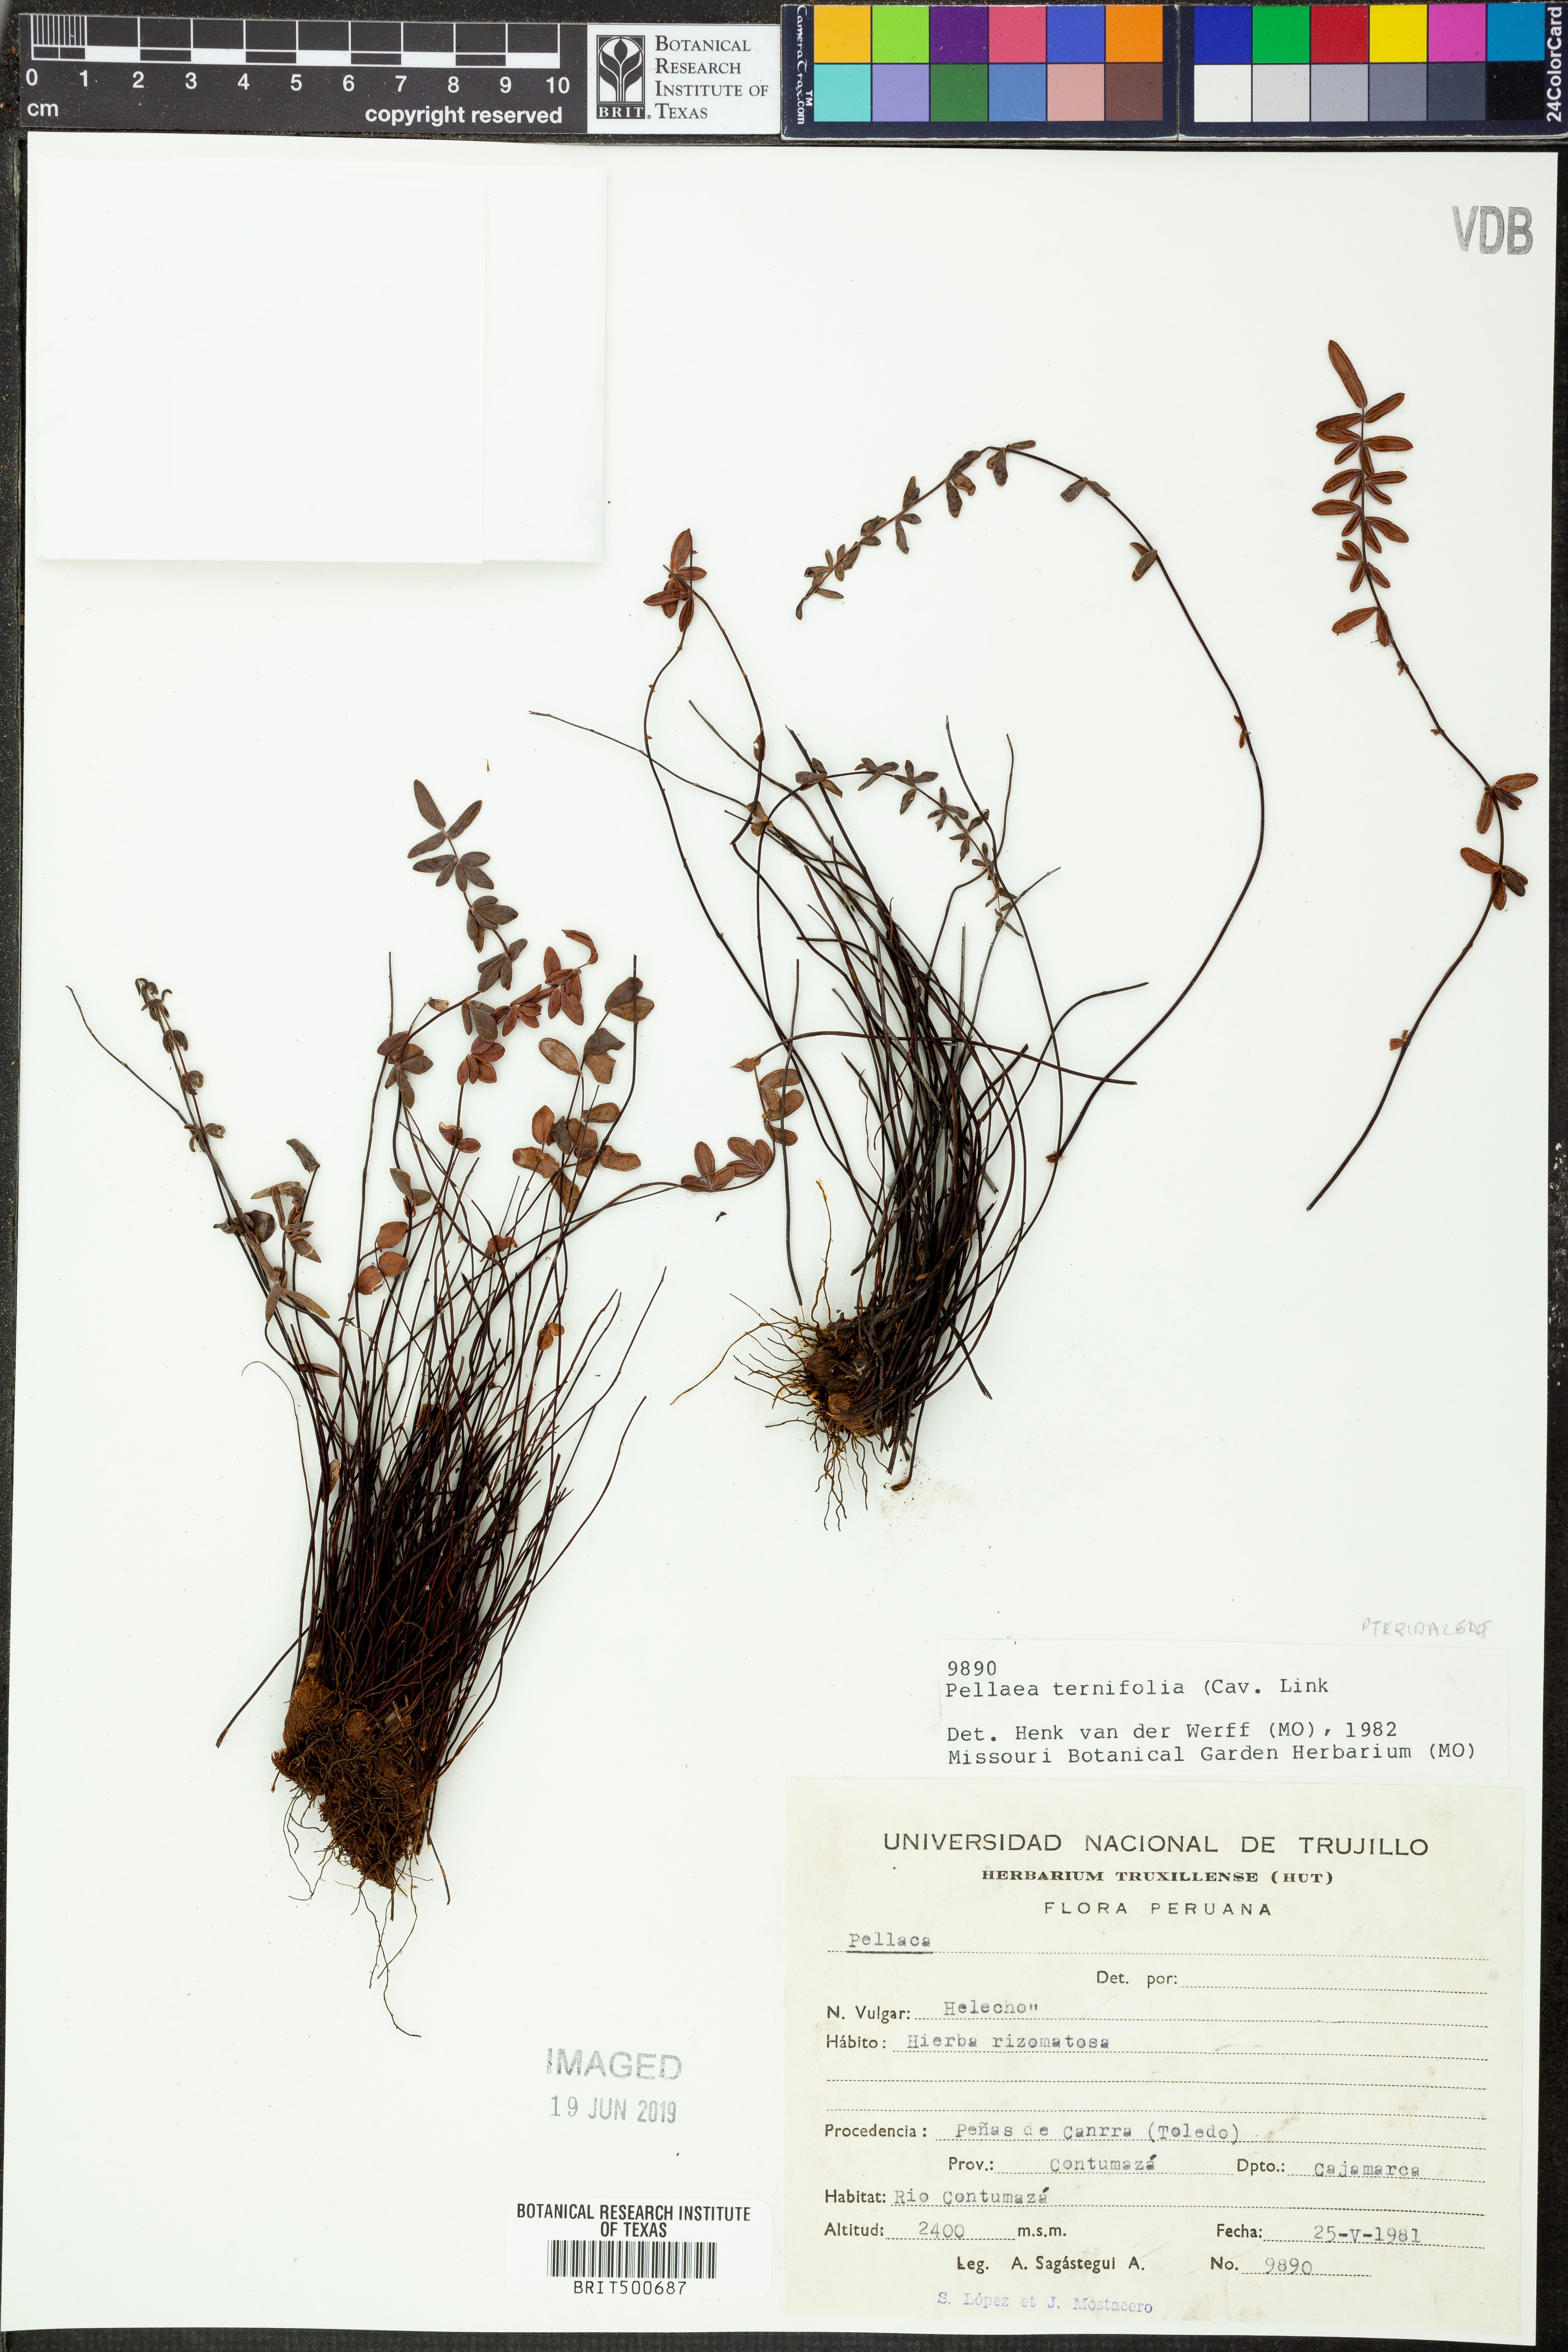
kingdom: Plantae
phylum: Tracheophyta
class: Polypodiopsida
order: Polypodiales
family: Pteridaceae
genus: Pellaea
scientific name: Pellaea ternifolia
